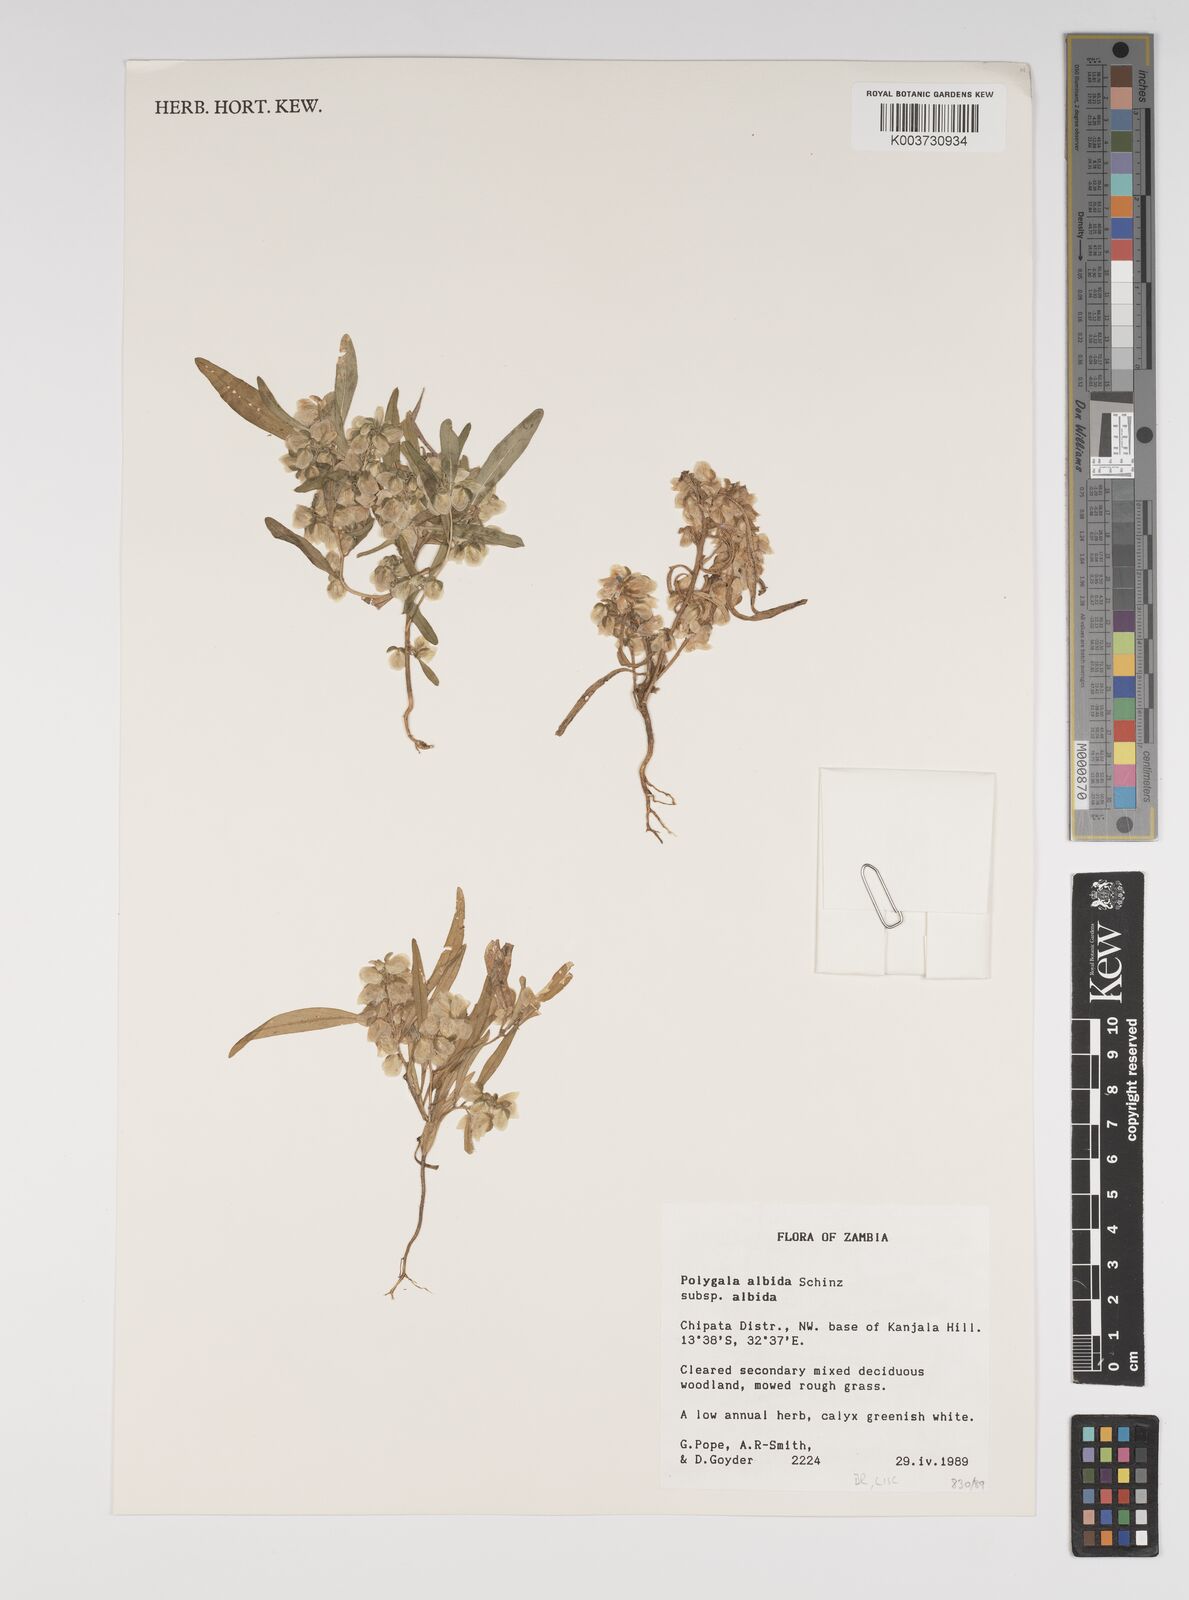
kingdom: Plantae
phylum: Tracheophyta
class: Magnoliopsida
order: Fabales
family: Polygalaceae
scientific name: Polygalaceae
